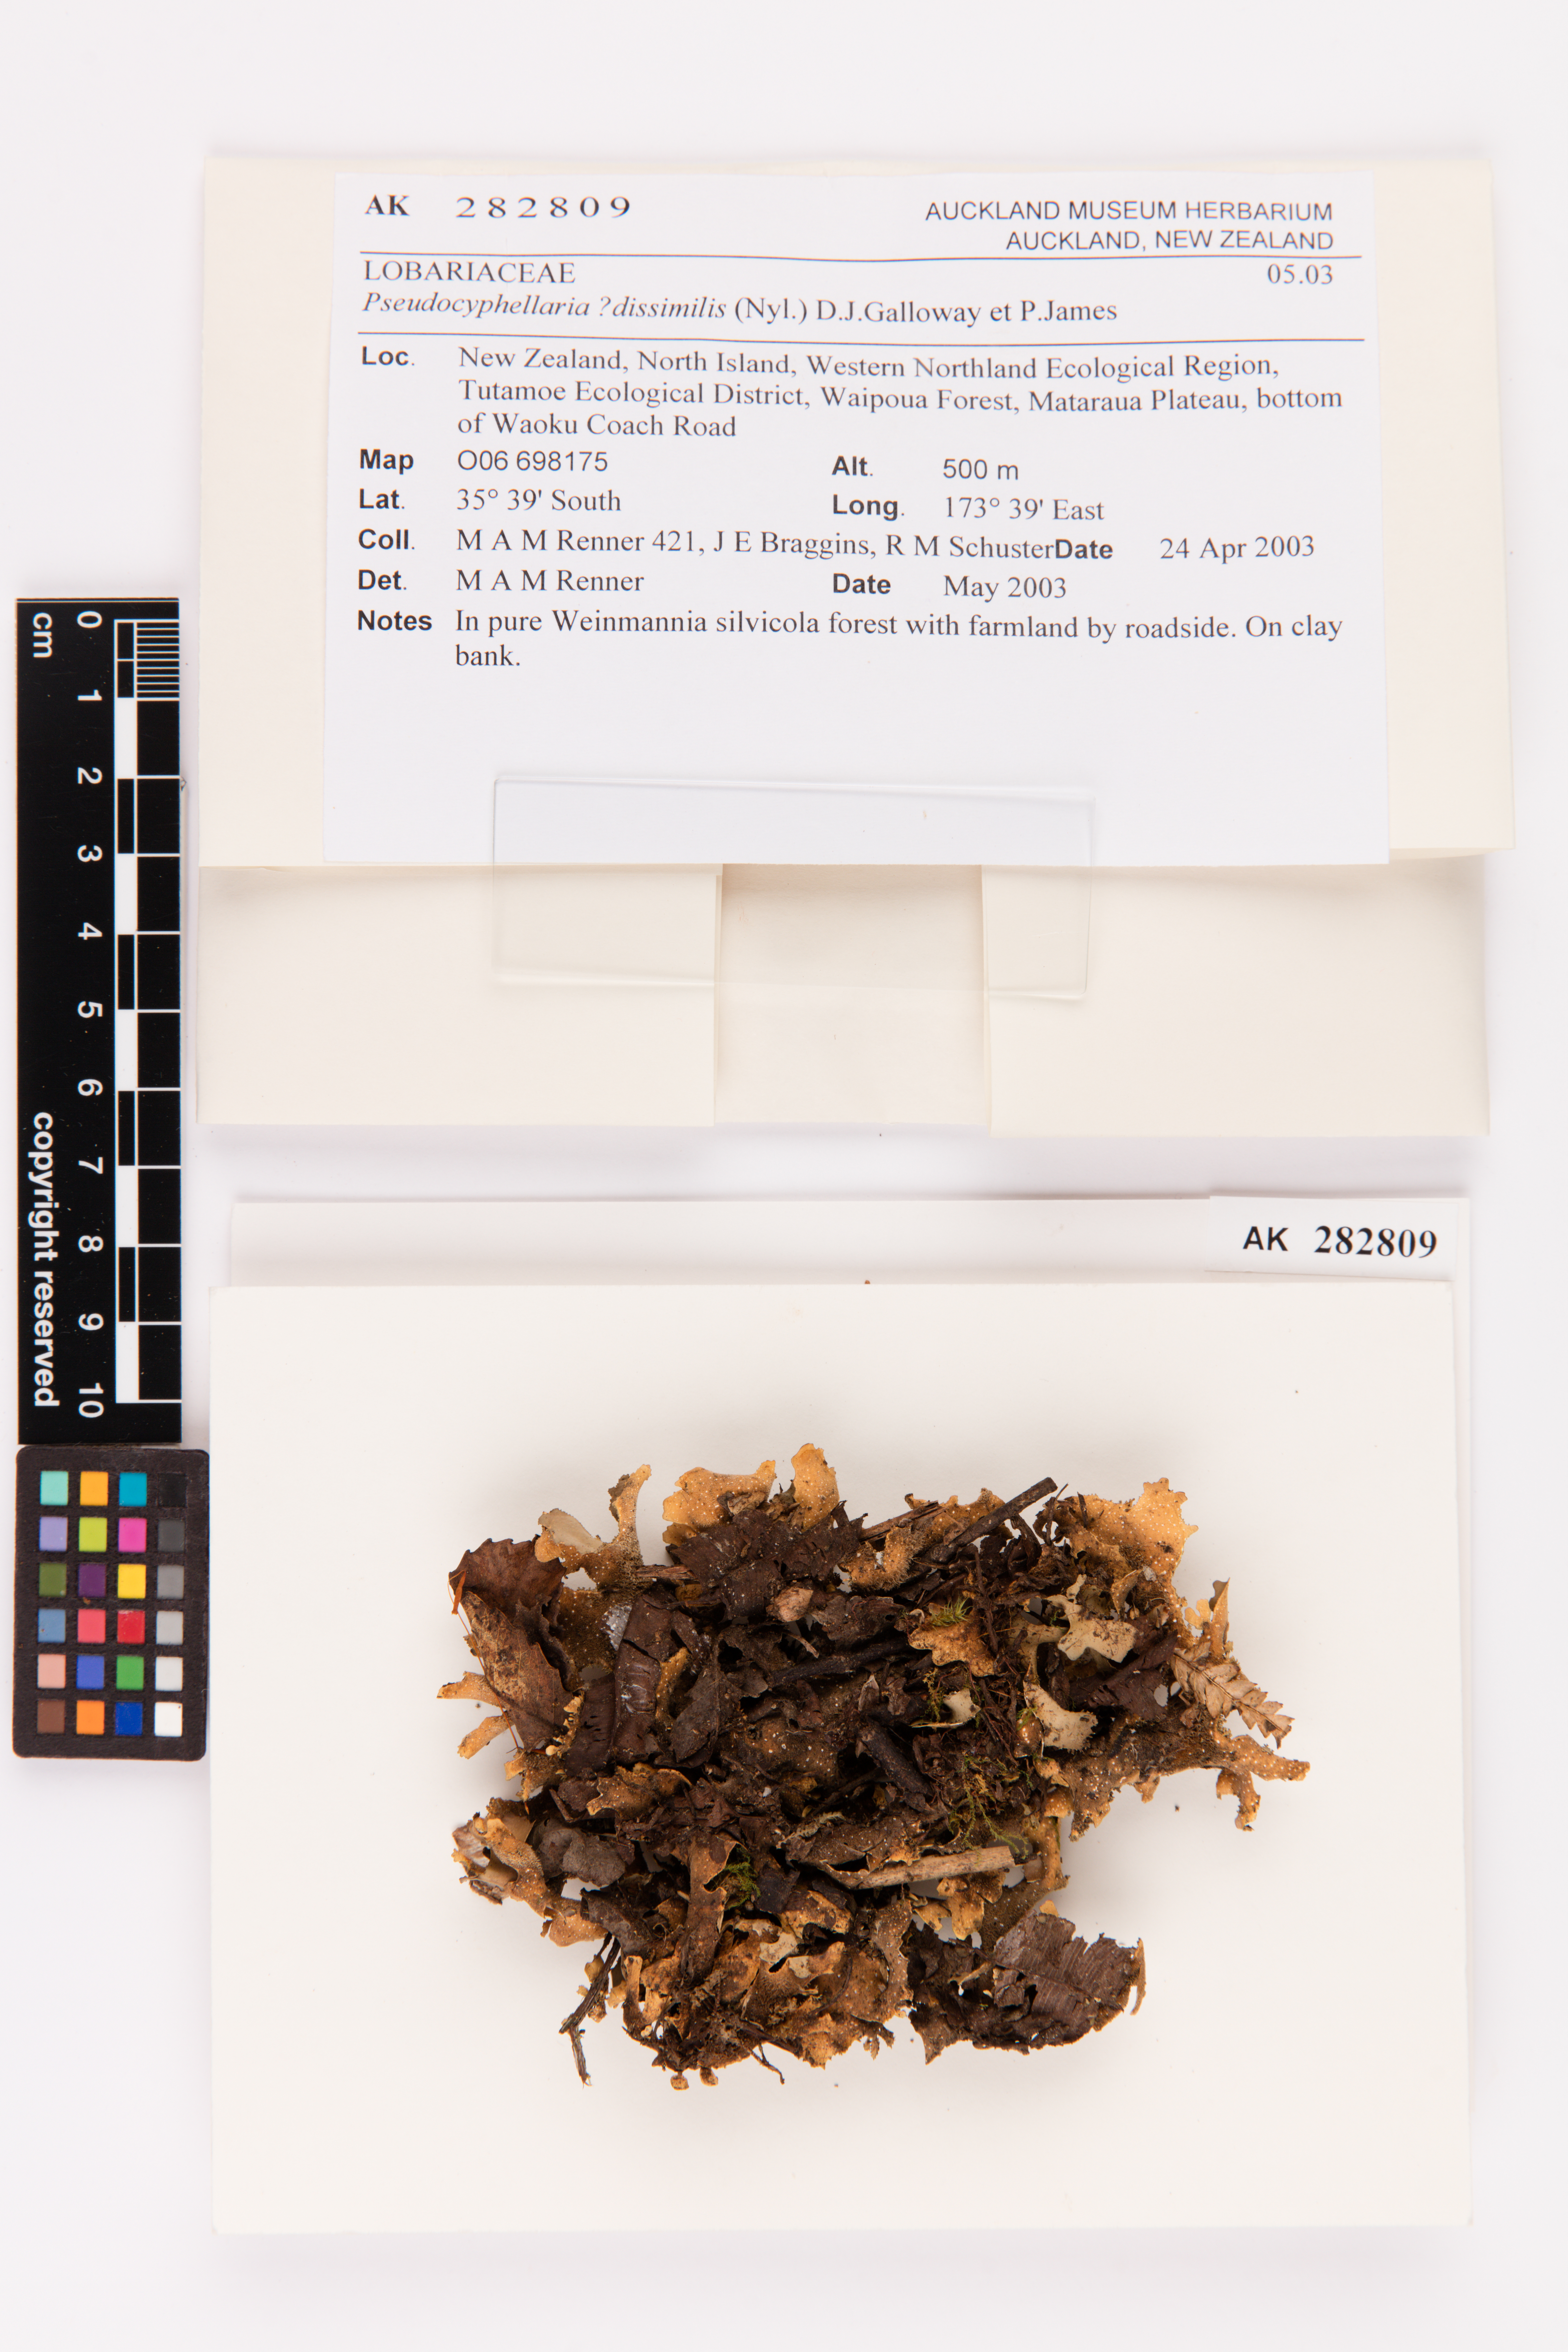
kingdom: Fungi
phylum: Ascomycota
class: Lecanoromycetes
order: Peltigerales
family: Lobariaceae
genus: Pseudocyphellaria
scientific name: Pseudocyphellaria dissimilis
